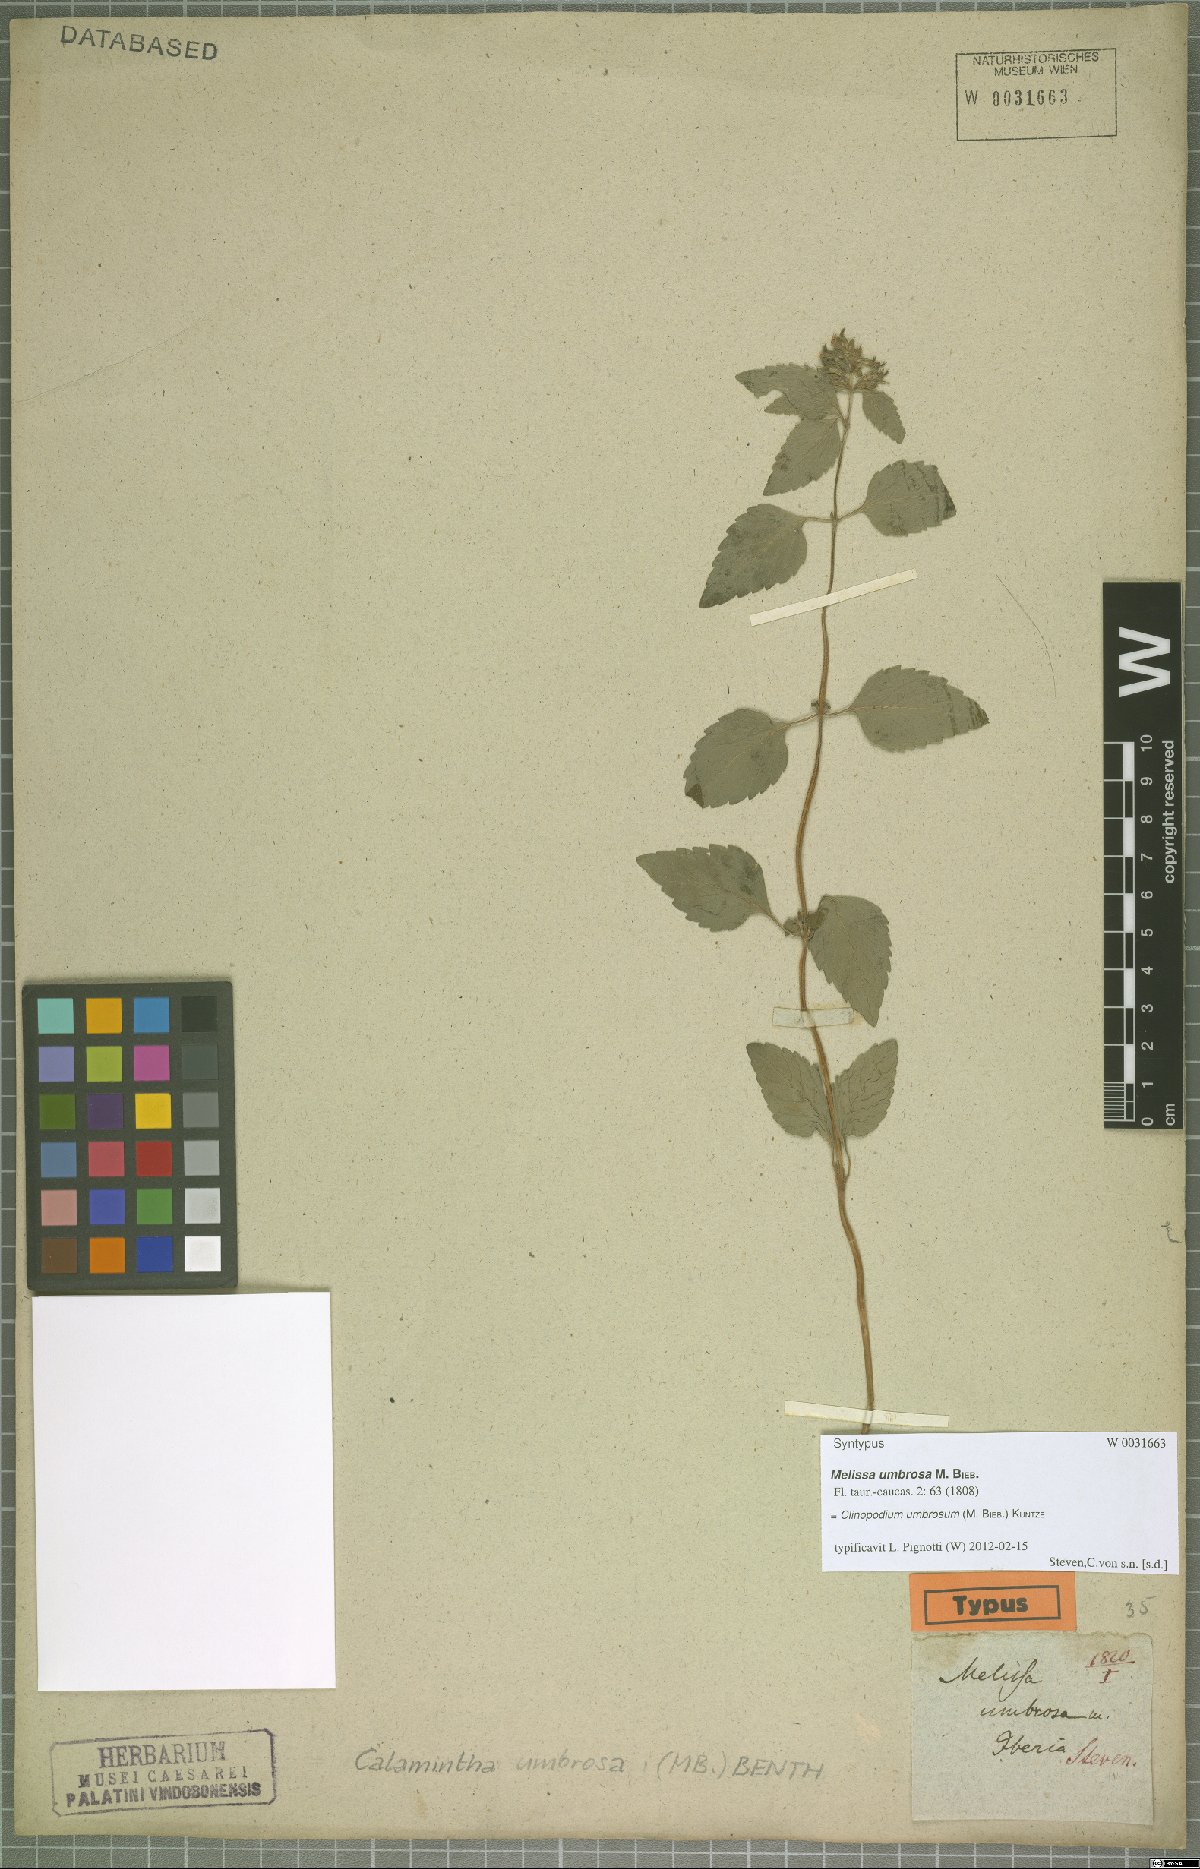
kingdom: Plantae
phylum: Tracheophyta
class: Magnoliopsida
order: Lamiales
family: Lamiaceae
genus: Clinopodium
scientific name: Clinopodium umbrosum
